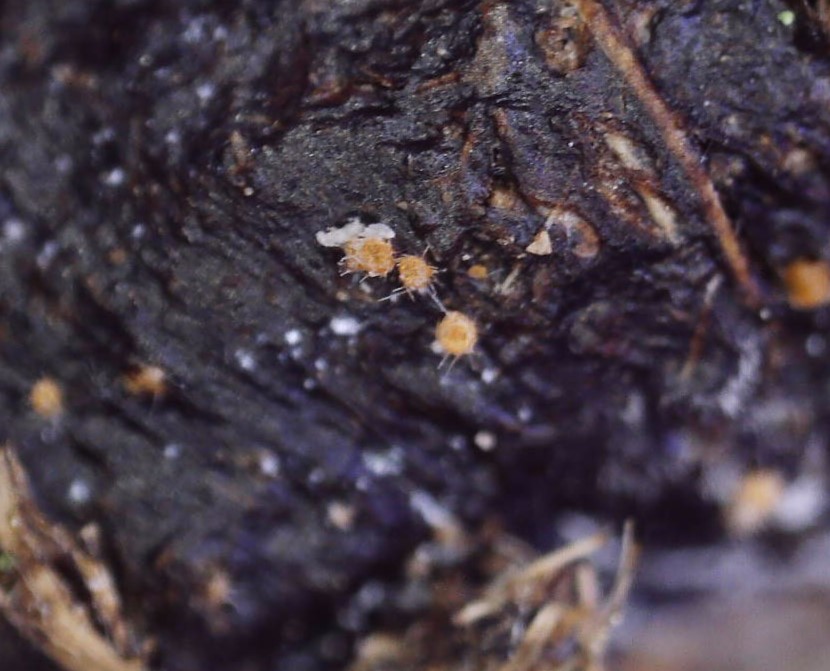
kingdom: Fungi
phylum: Ascomycota
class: Pezizomycetes
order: Pezizales
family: Ascodesmidaceae
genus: Lasiobolus
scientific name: Lasiobolus cuniculi
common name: toradet øjebæger
